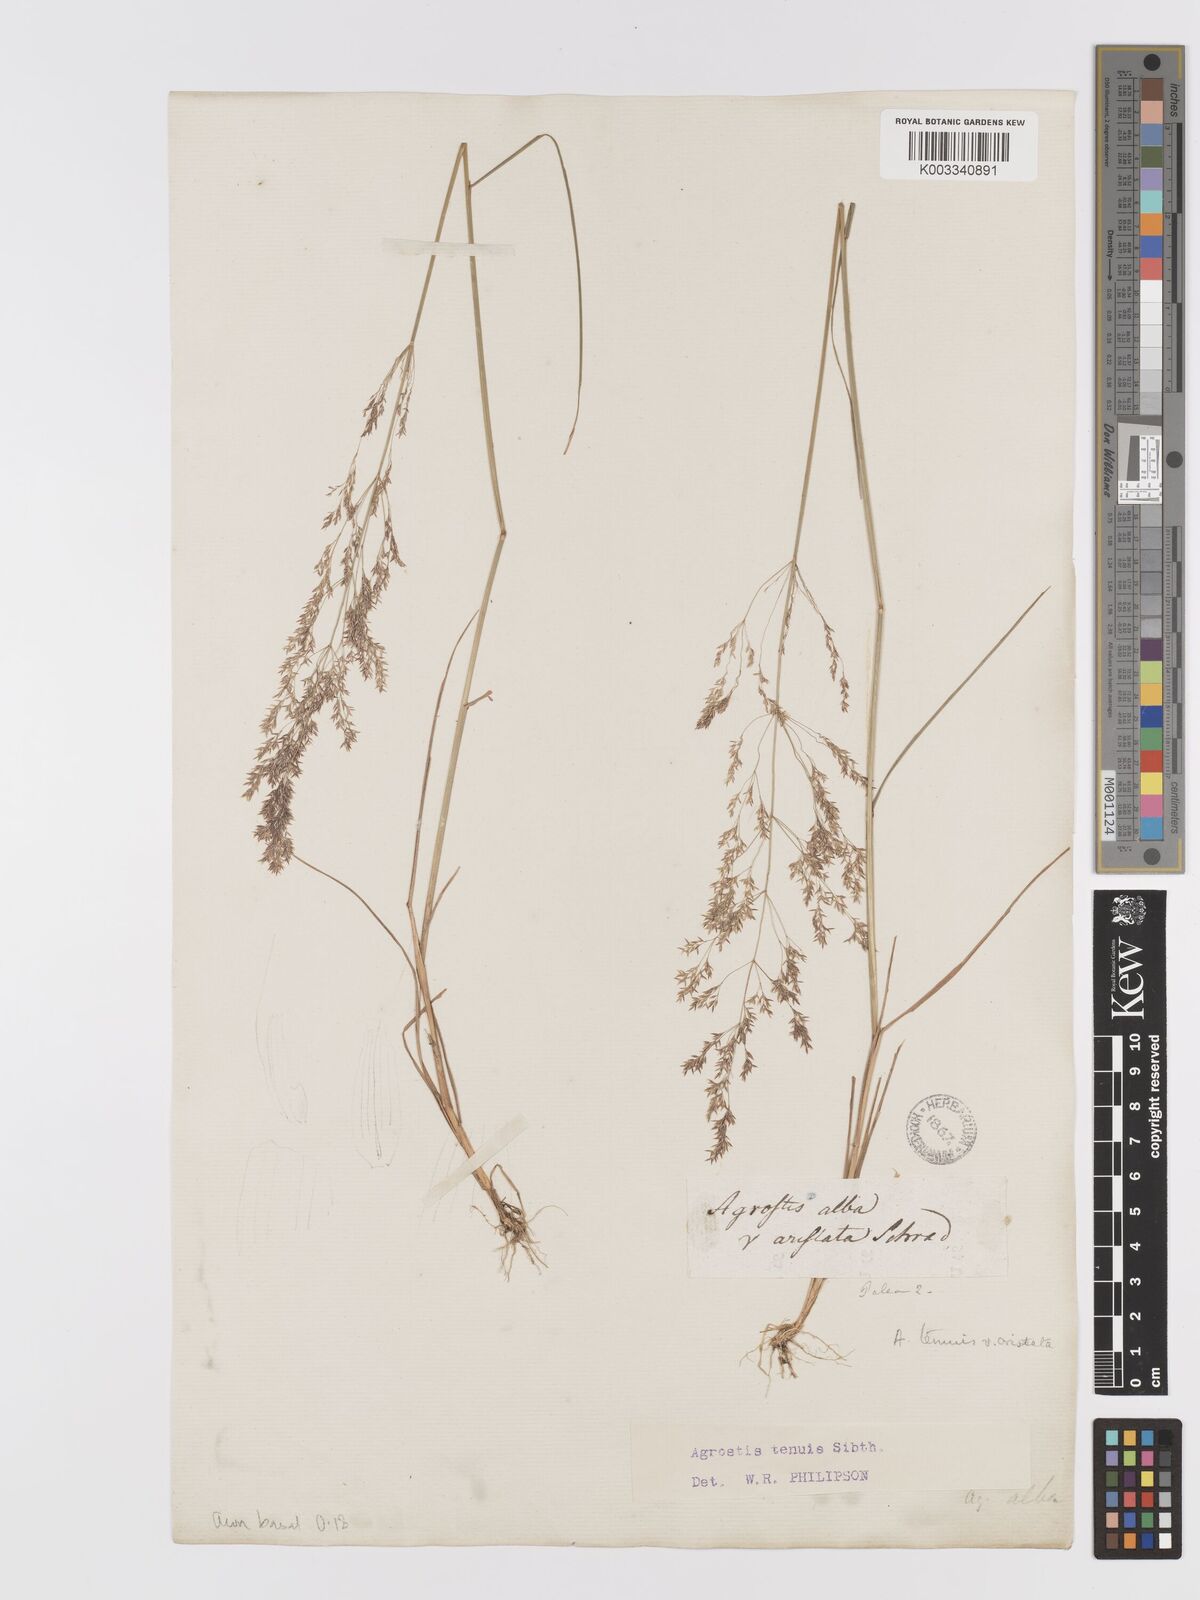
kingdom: Plantae
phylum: Tracheophyta
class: Liliopsida
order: Poales
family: Poaceae
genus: Agrostis
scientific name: Agrostis capillaris
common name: Colonial bentgrass
